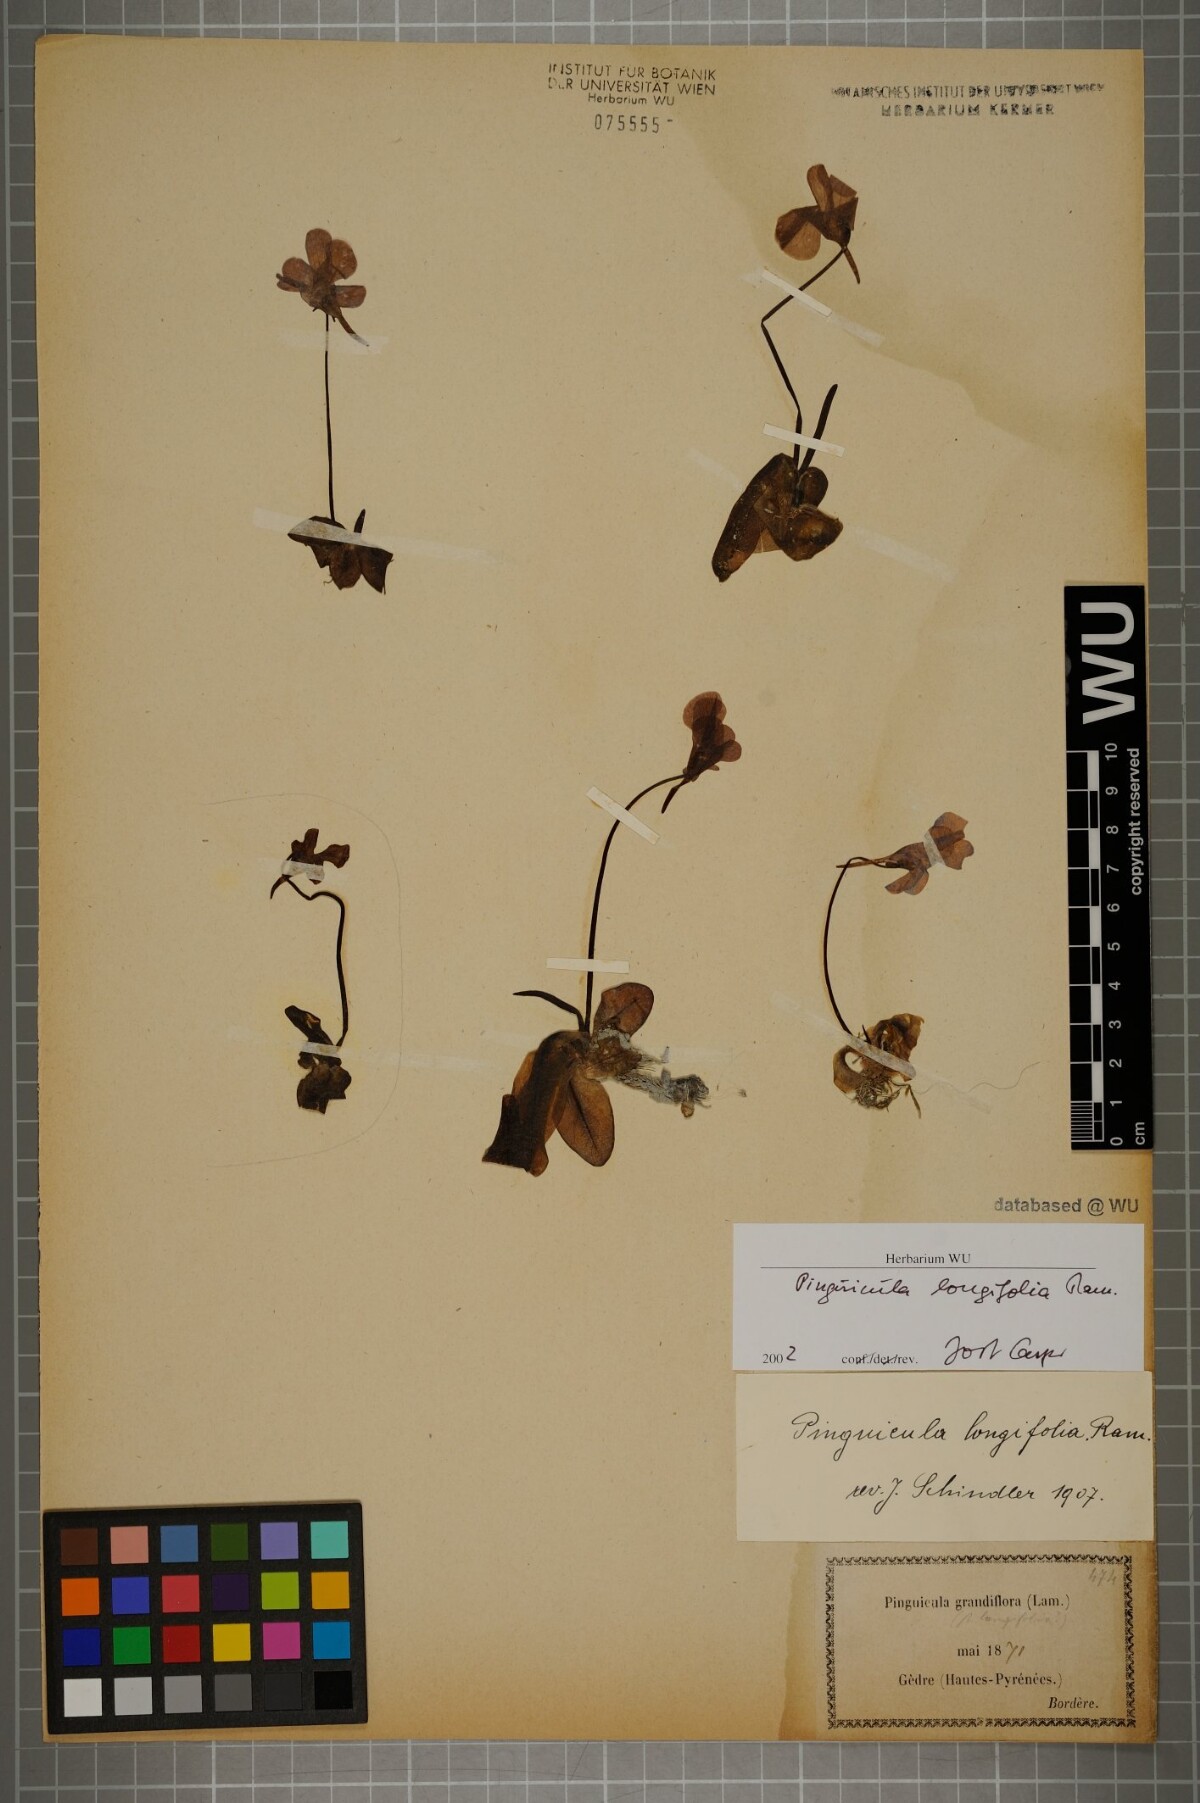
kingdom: Plantae
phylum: Tracheophyta
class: Magnoliopsida
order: Lamiales
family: Lentibulariaceae
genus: Pinguicula
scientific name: Pinguicula longifolia
